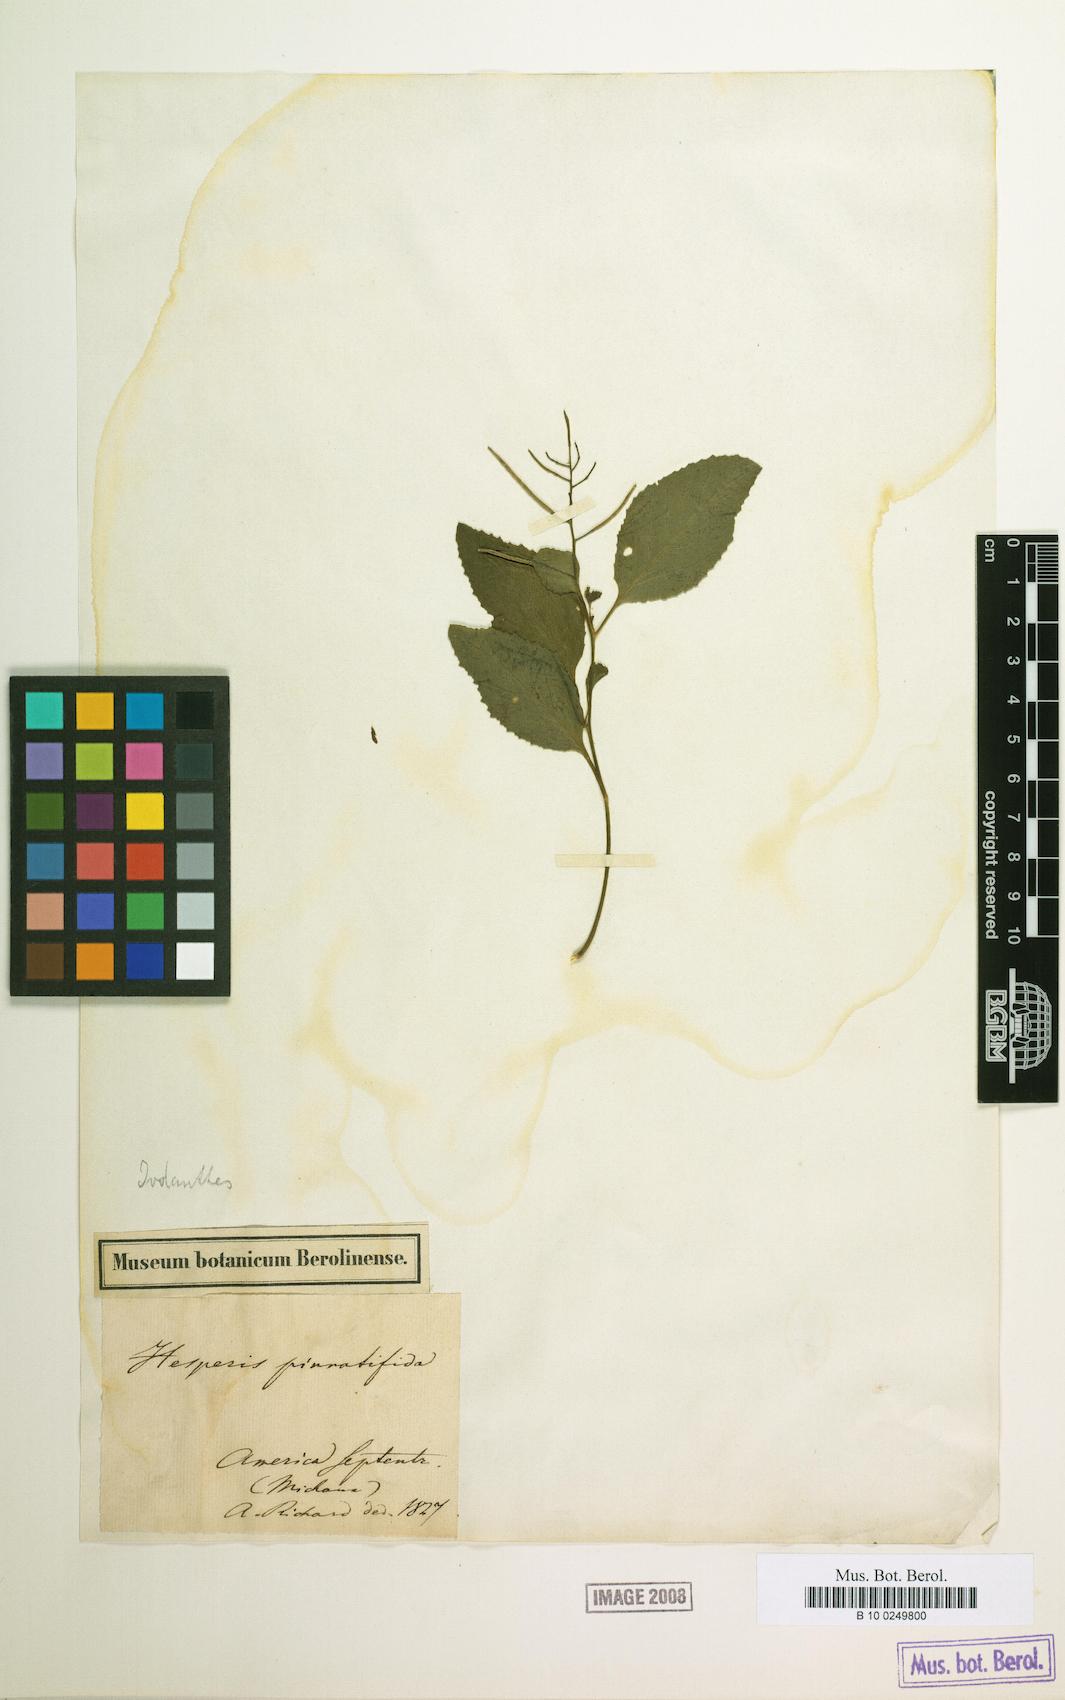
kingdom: Plantae
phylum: Tracheophyta
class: Magnoliopsida
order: Brassicales
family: Brassicaceae
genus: Iodanthus
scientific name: Iodanthus pinnatifidus
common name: Violet rocket
